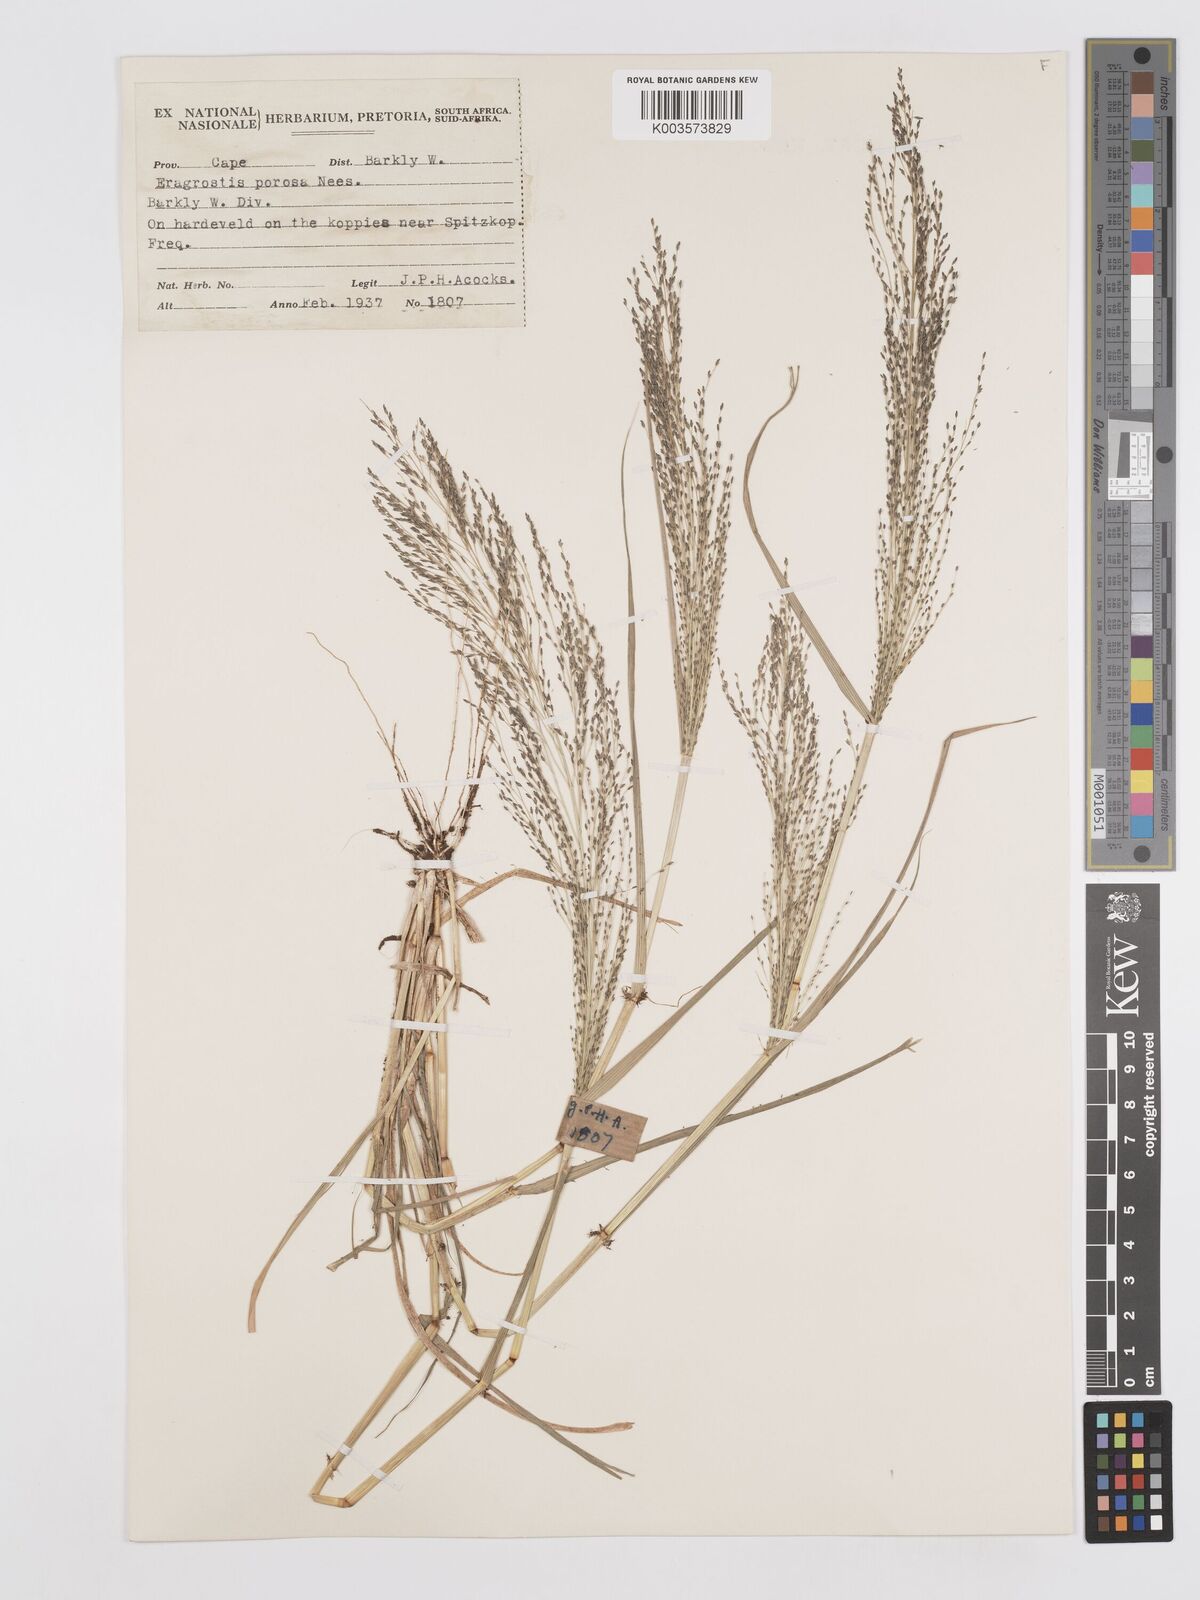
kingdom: Plantae
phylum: Tracheophyta
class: Liliopsida
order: Poales
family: Poaceae
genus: Eragrostis
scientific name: Eragrostis porosa
